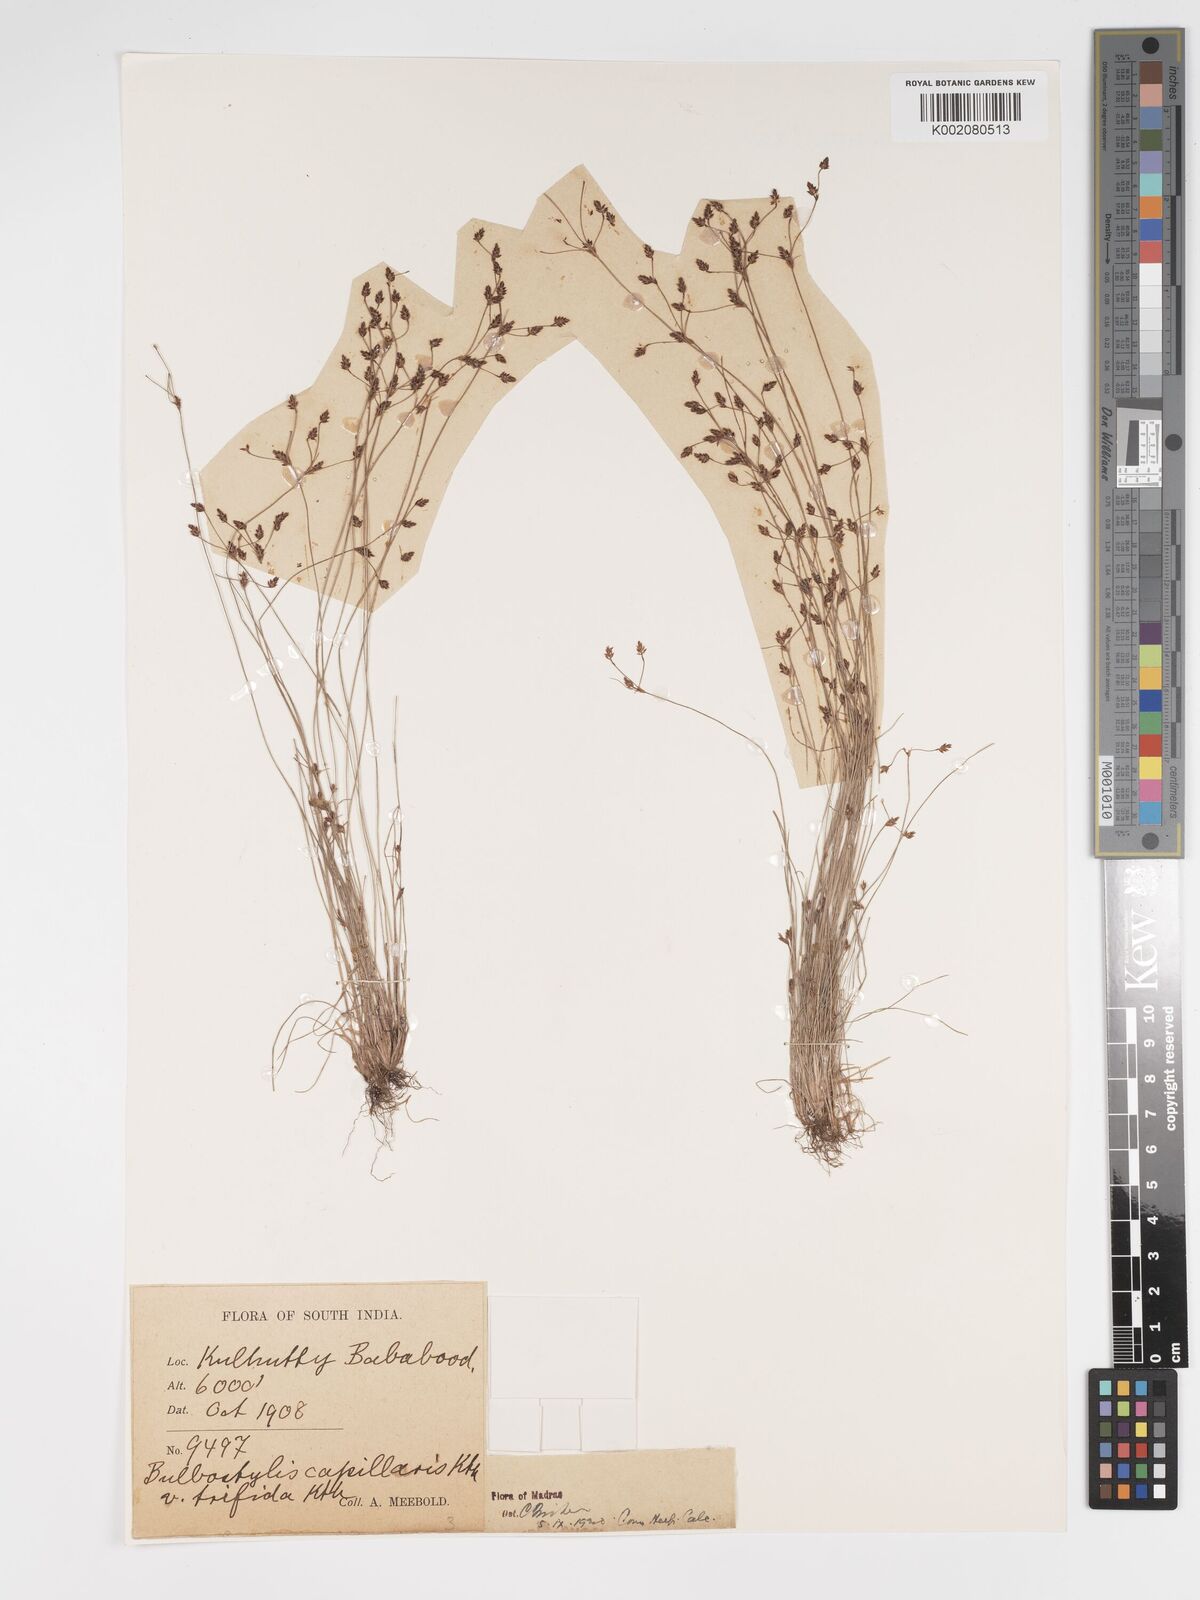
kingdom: Plantae
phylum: Tracheophyta
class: Liliopsida
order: Poales
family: Cyperaceae
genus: Bulbostylis
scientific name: Bulbostylis capillaris
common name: Densetuft hairsedge
